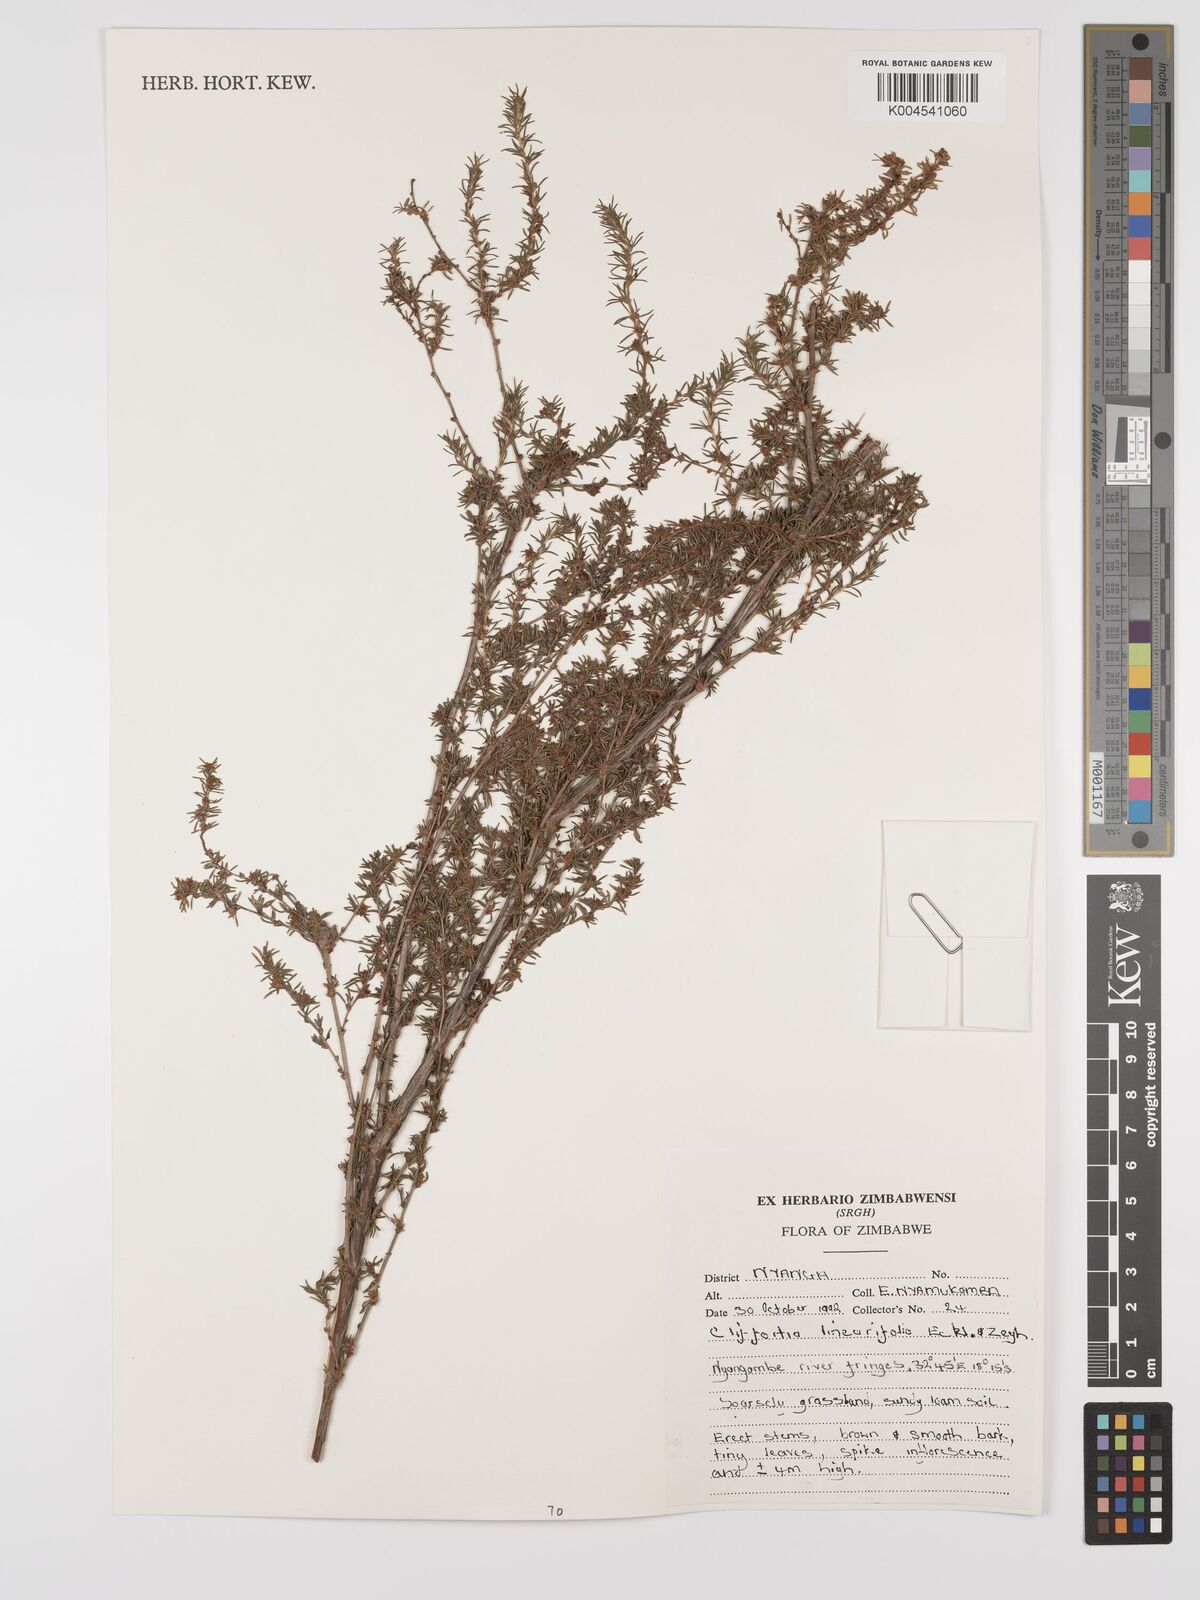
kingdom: Plantae
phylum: Tracheophyta
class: Magnoliopsida
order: Rosales
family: Rosaceae
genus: Cliffortia
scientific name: Cliffortia linearifolia
